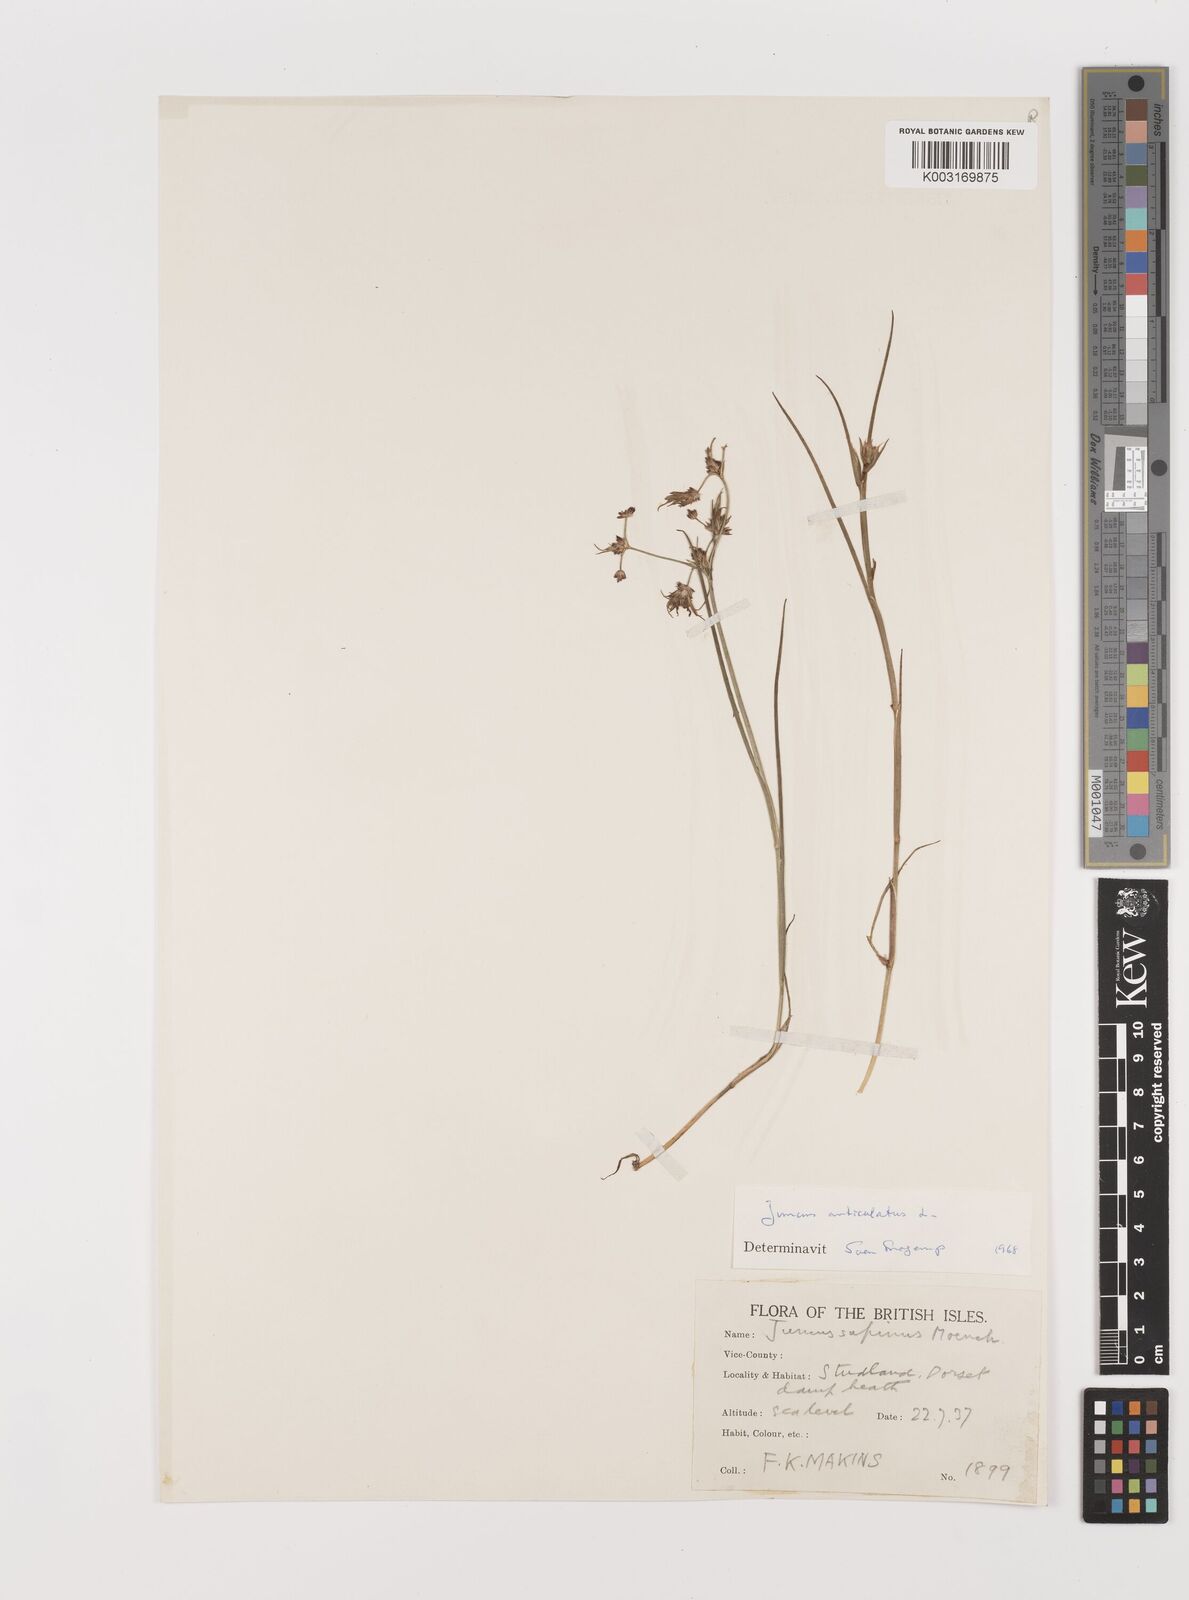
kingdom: Plantae
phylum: Tracheophyta
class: Liliopsida
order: Poales
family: Juncaceae
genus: Juncus
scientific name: Juncus articulatus
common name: Jointed rush
